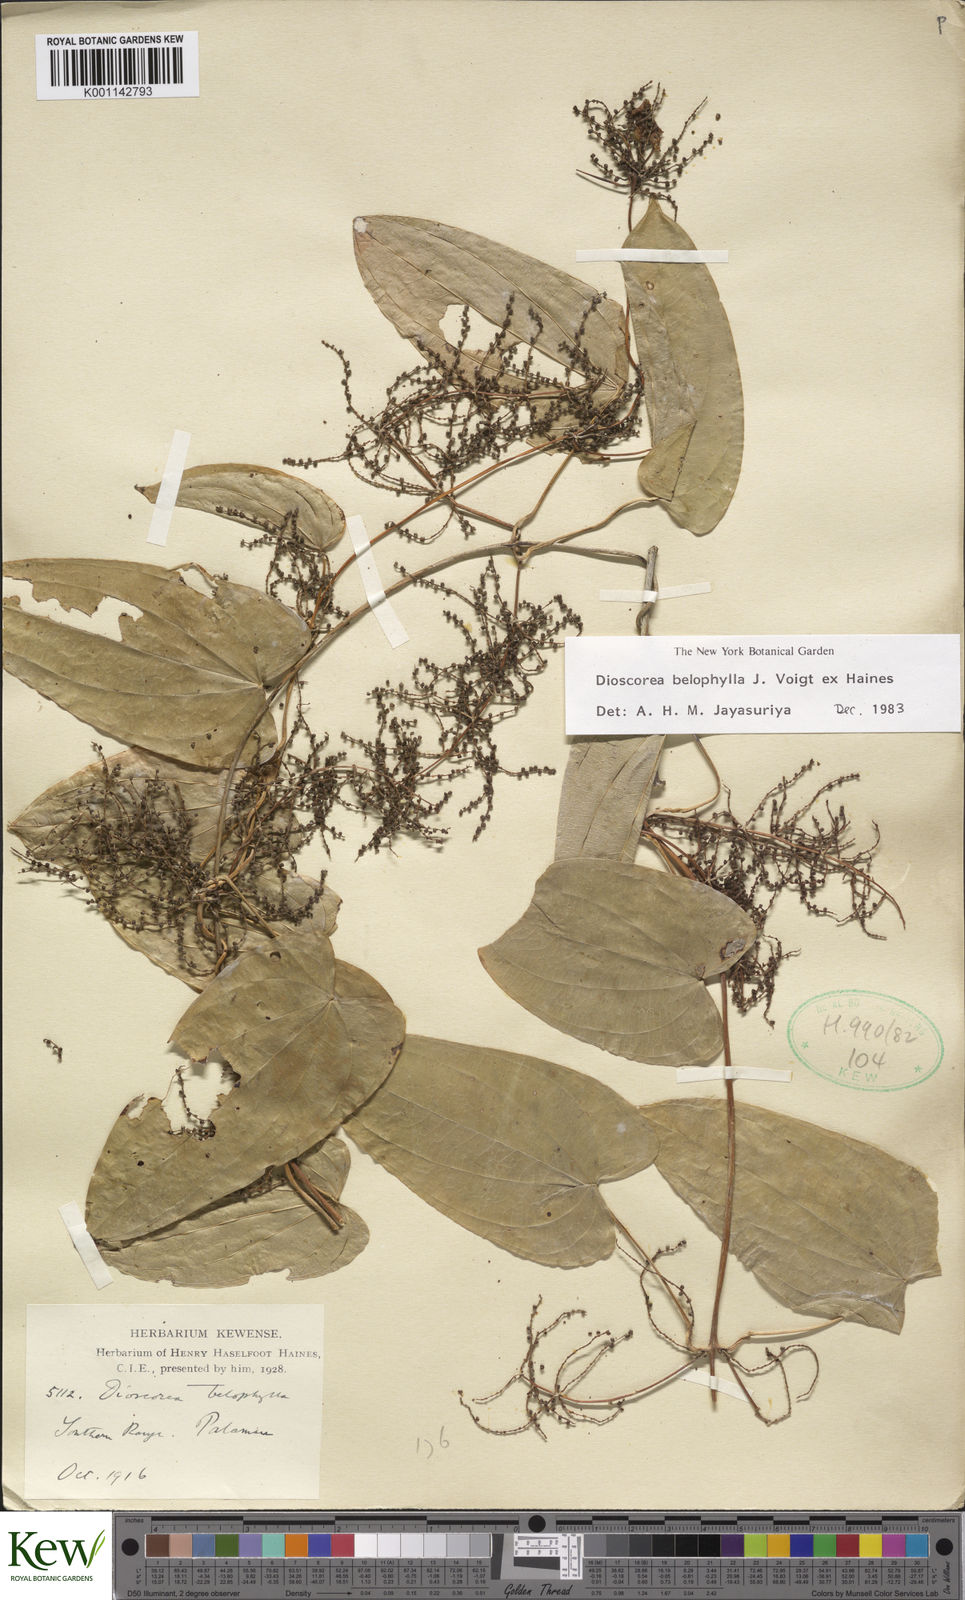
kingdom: Plantae
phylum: Tracheophyta
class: Liliopsida
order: Dioscoreales
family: Dioscoreaceae
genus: Dioscorea
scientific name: Dioscorea belophylla
